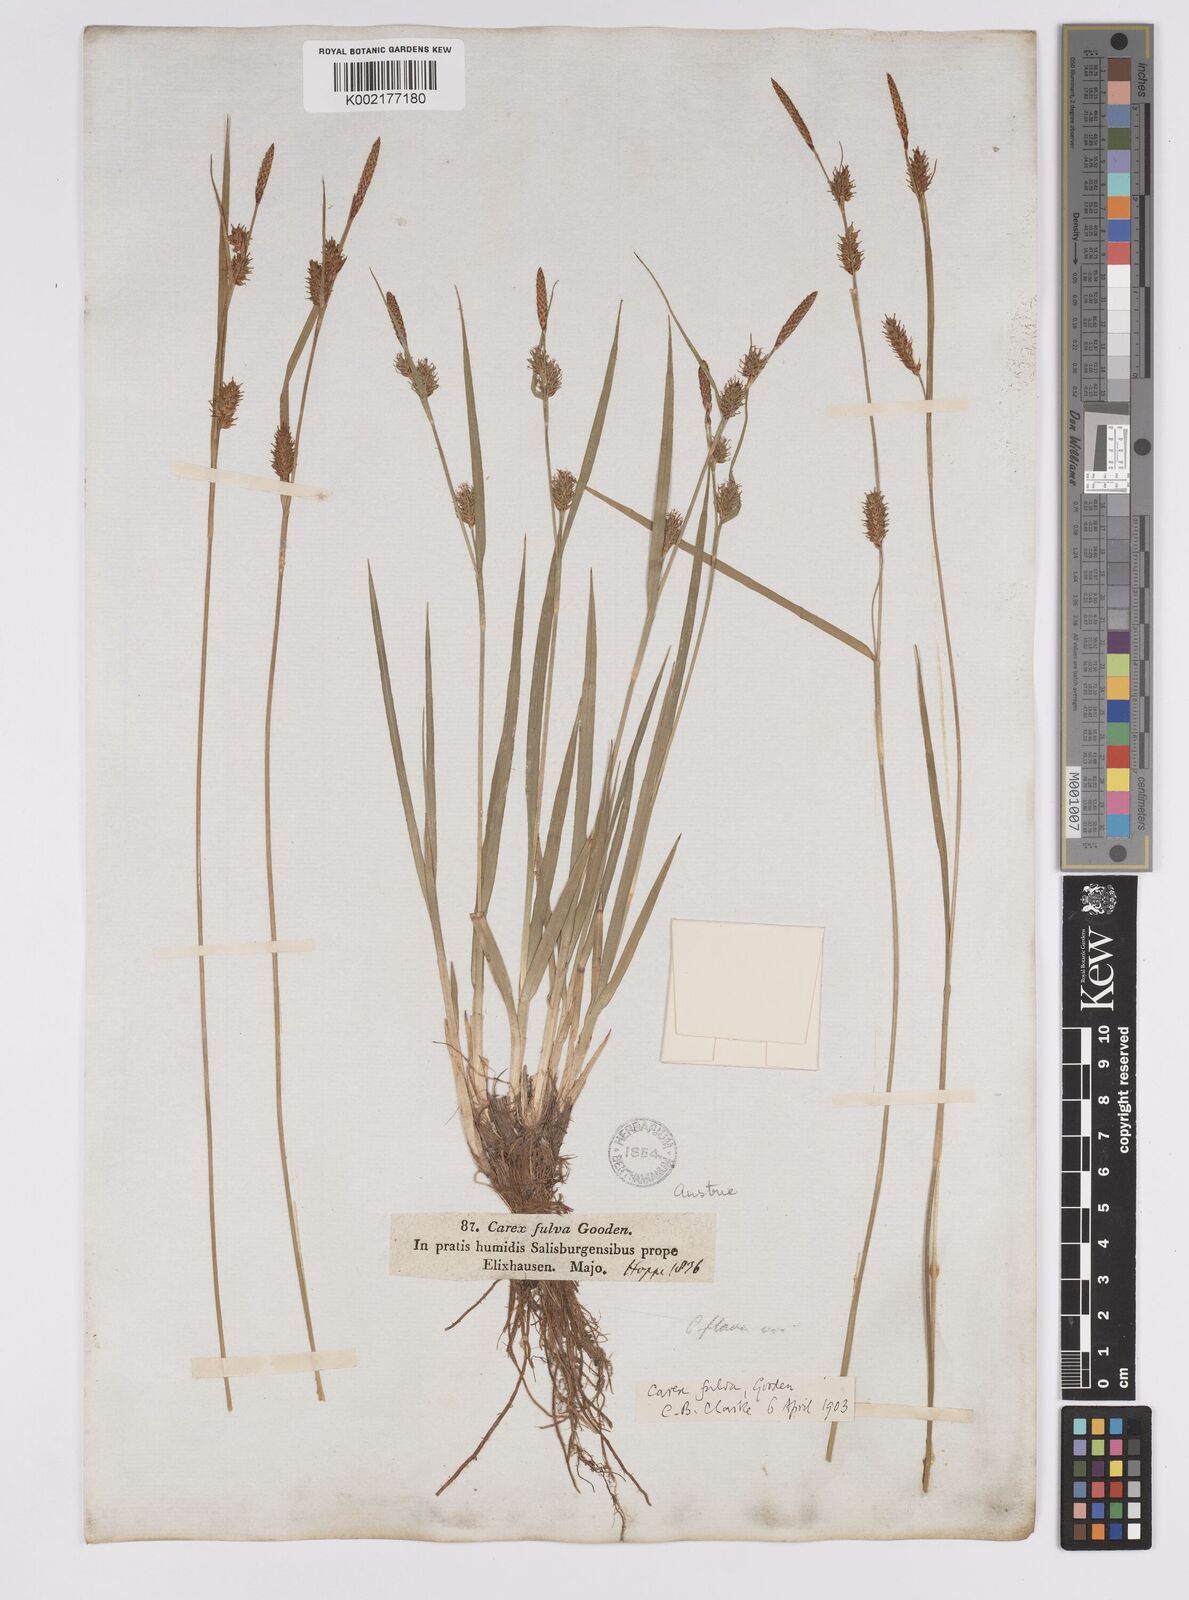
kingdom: Plantae
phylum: Tracheophyta
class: Liliopsida
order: Poales
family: Cyperaceae
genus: Carex
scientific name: Carex hostiana
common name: Tawny sedge
